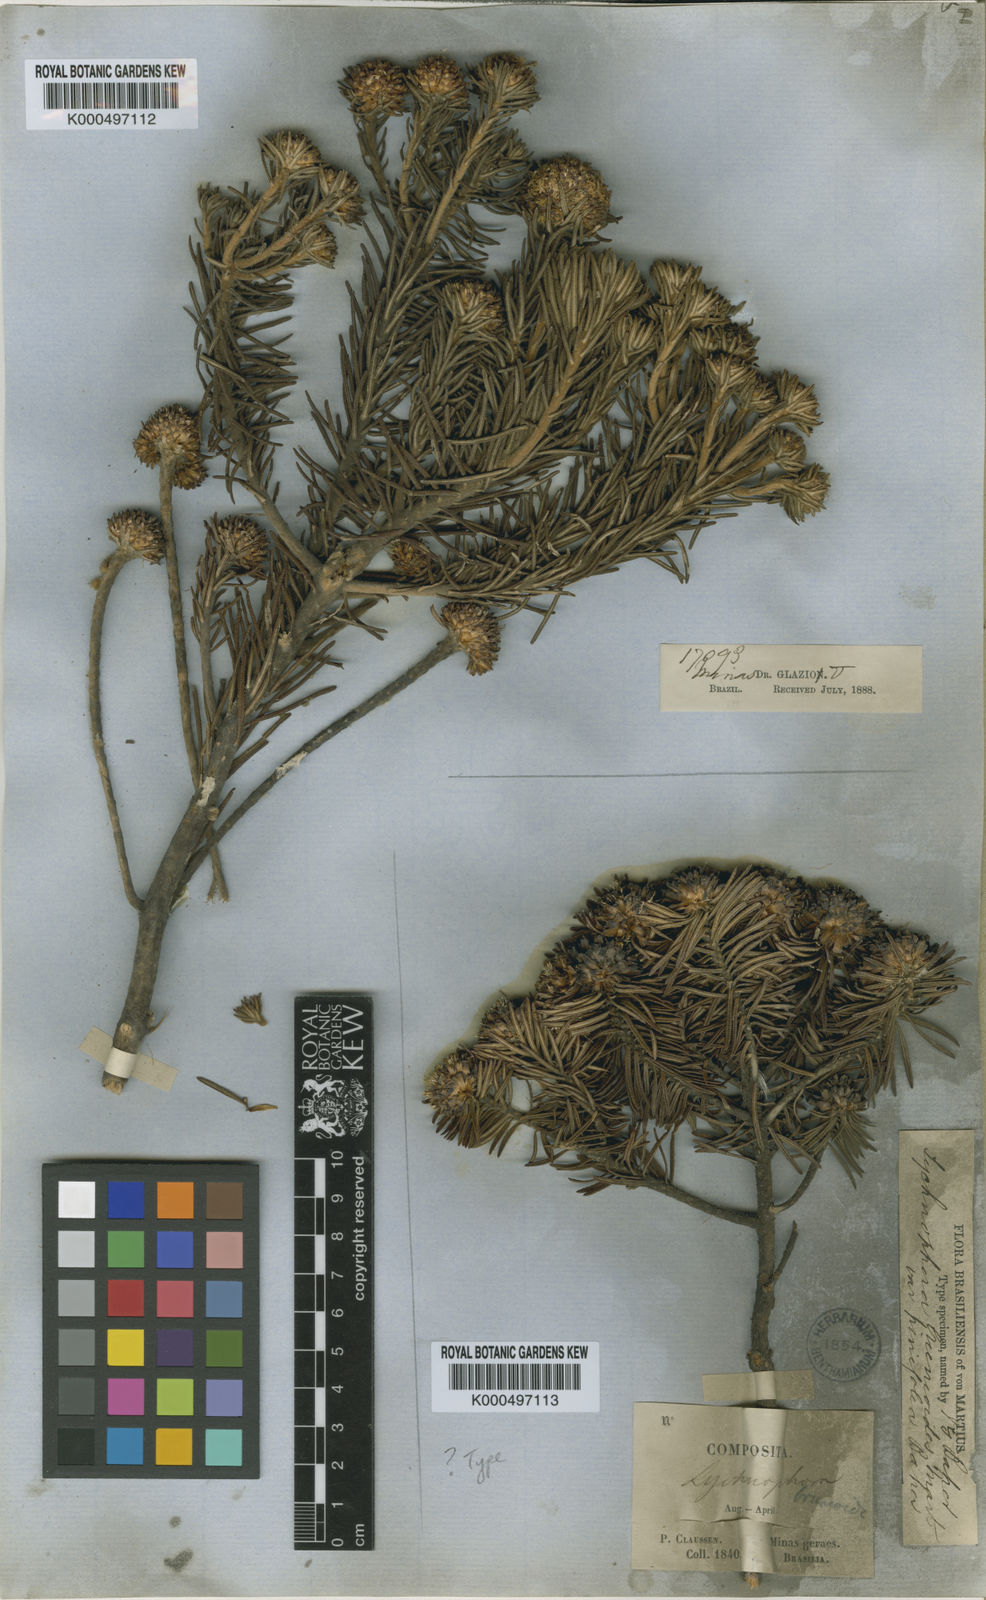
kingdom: Plantae
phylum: Tracheophyta
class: Magnoliopsida
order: Asterales
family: Asteraceae
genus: Lychnophora
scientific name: Lychnophora ericoides
